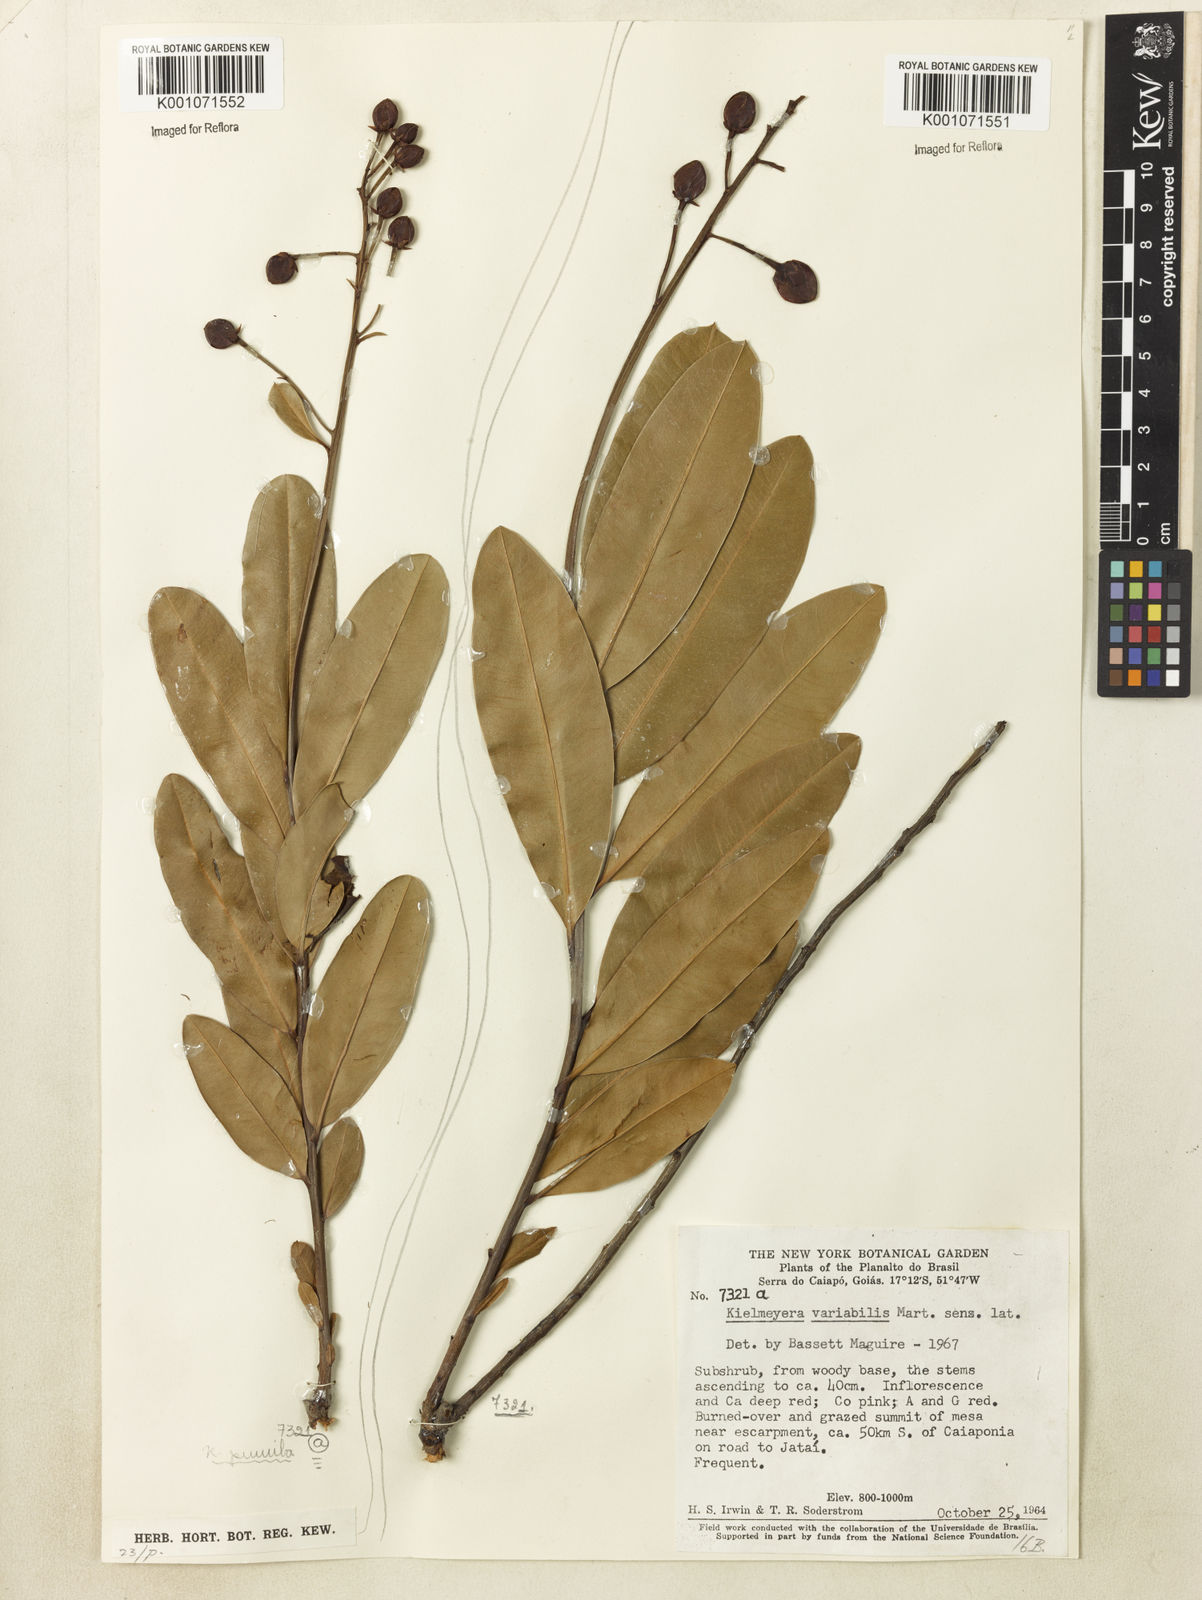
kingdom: Plantae
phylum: Tracheophyta
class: Magnoliopsida
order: Malpighiales
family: Calophyllaceae
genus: Kielmeyera
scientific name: Kielmeyera pumila
